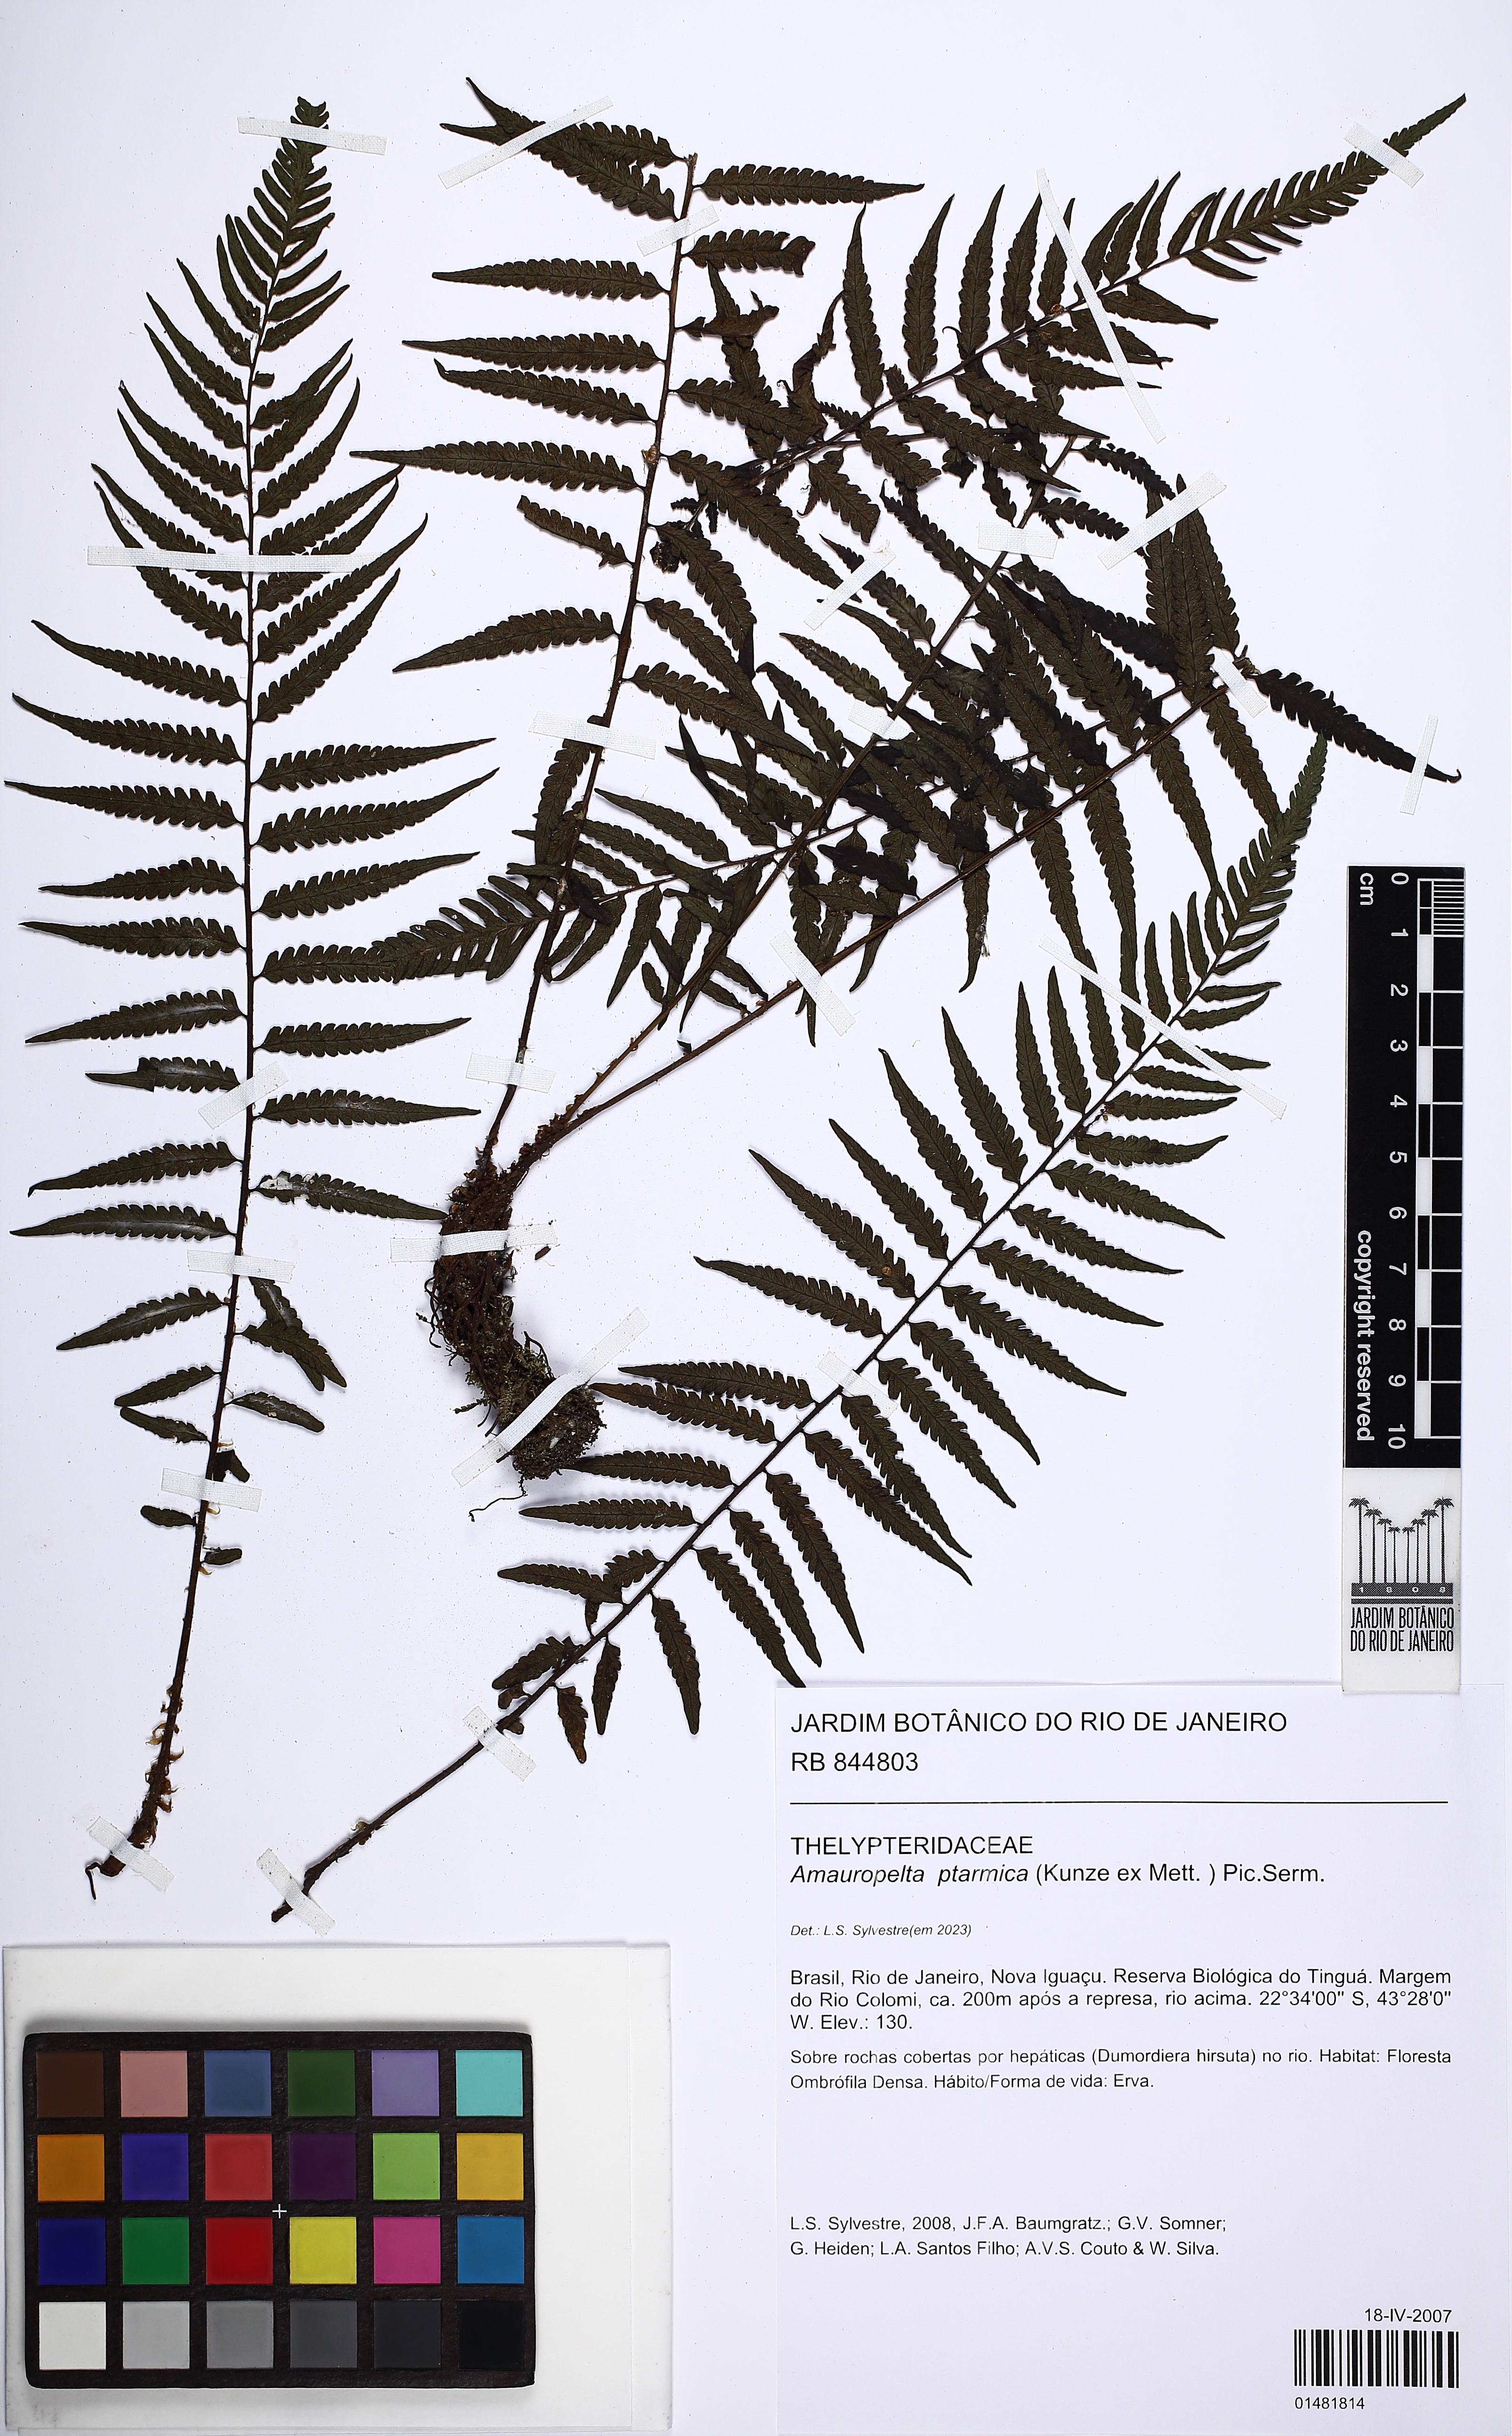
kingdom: Plantae
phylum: Tracheophyta
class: Polypodiopsida
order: Polypodiales
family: Thelypteridaceae
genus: Amauropelta
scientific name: Amauropelta ptarmica
